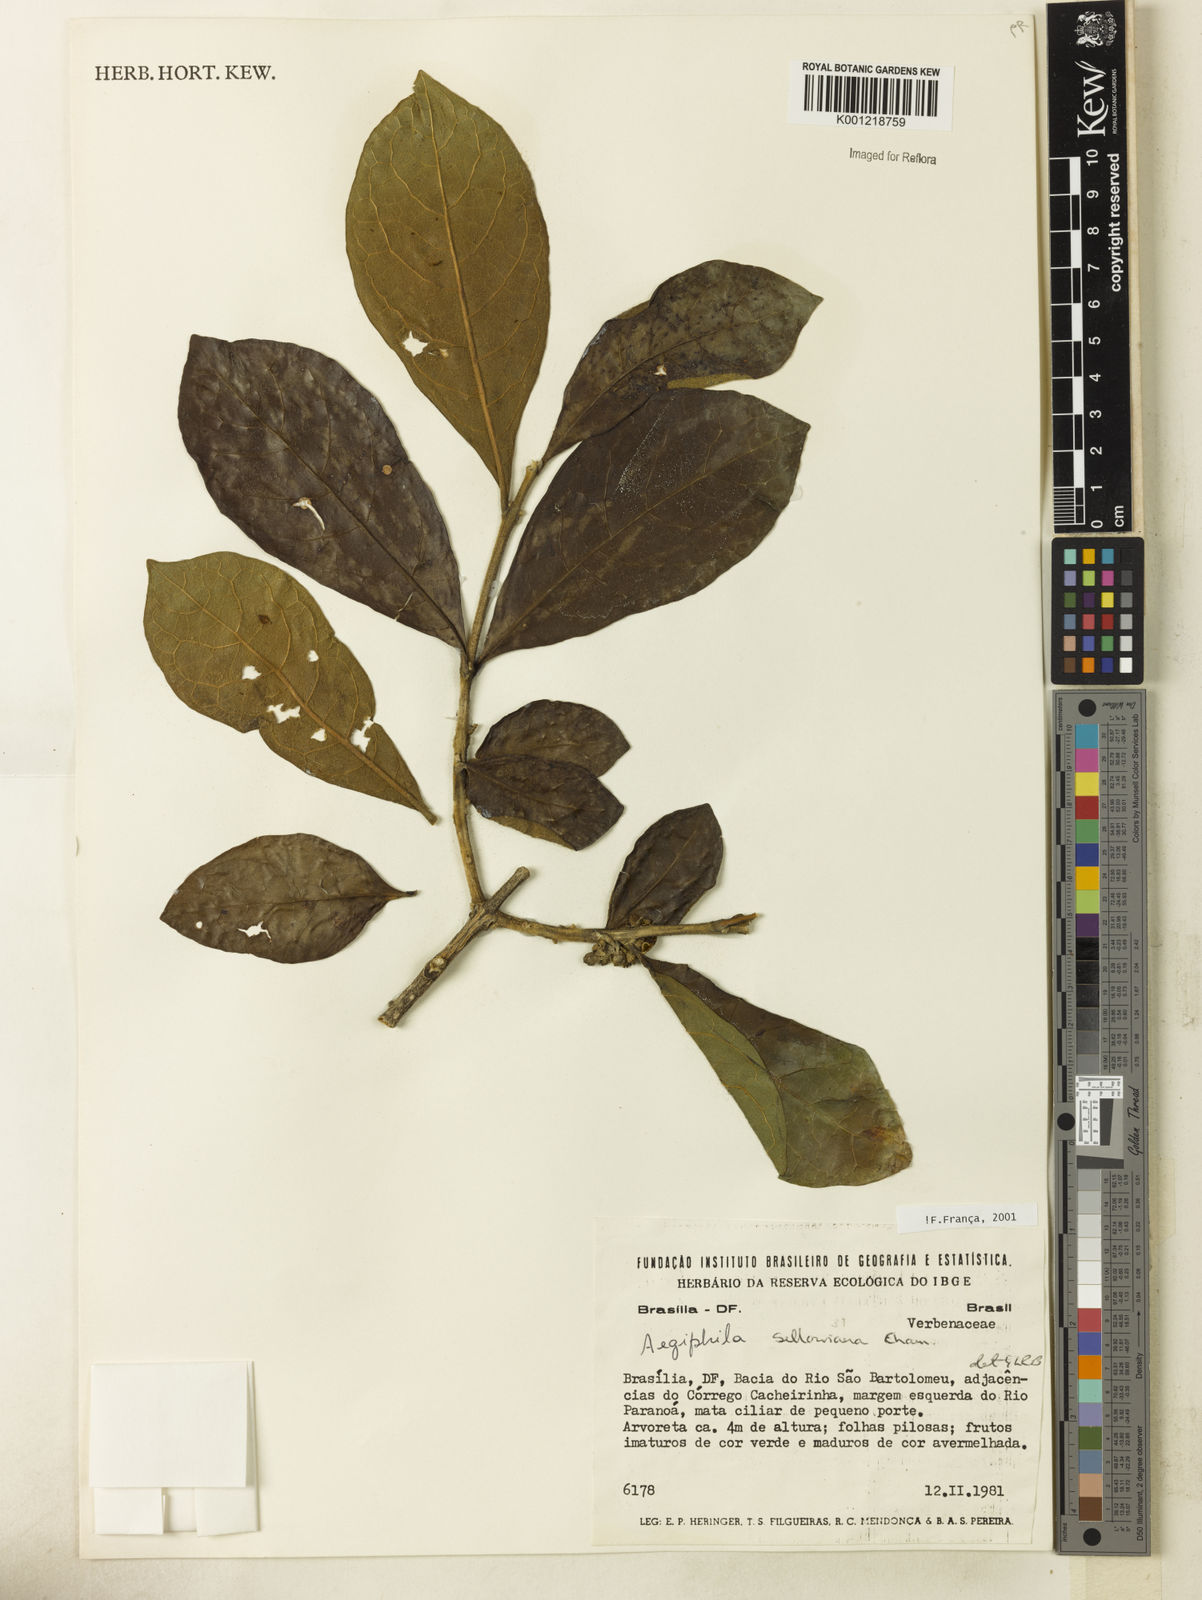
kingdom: Plantae
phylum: Tracheophyta
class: Magnoliopsida
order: Lamiales
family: Lamiaceae
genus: Aegiphila
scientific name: Aegiphila verticillata
